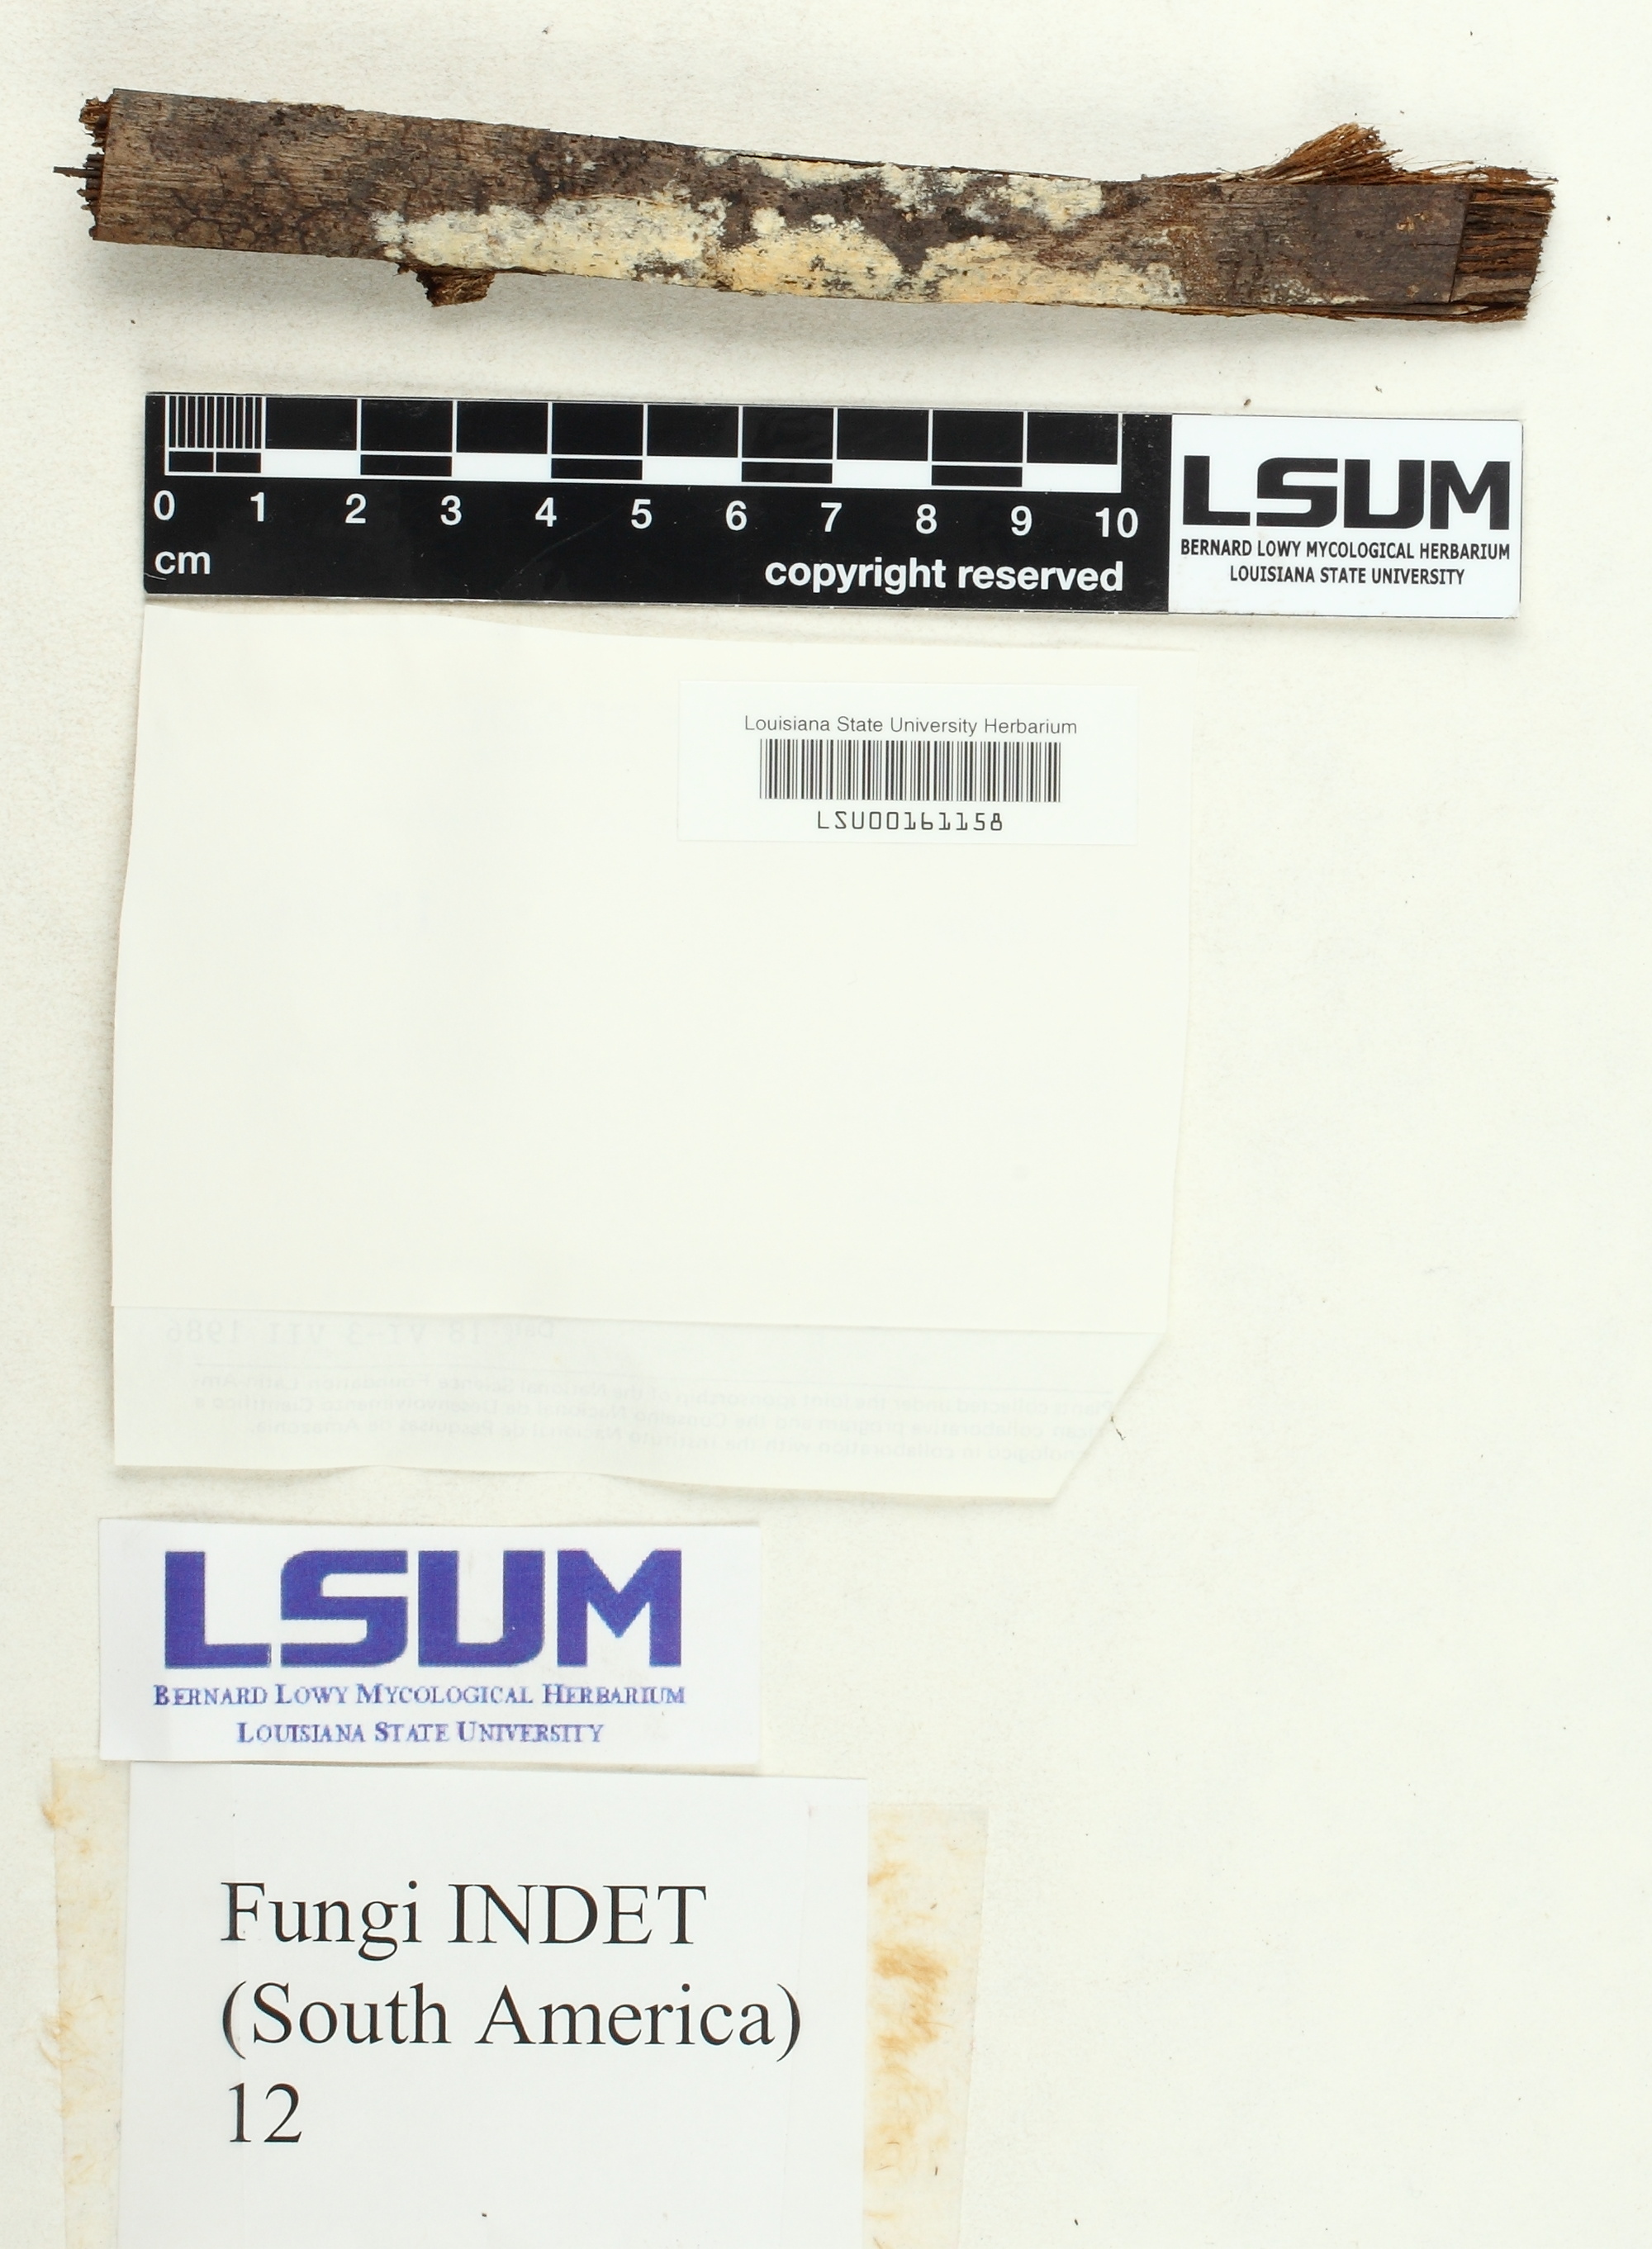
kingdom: Fungi
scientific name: Fungi
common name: Fungi
